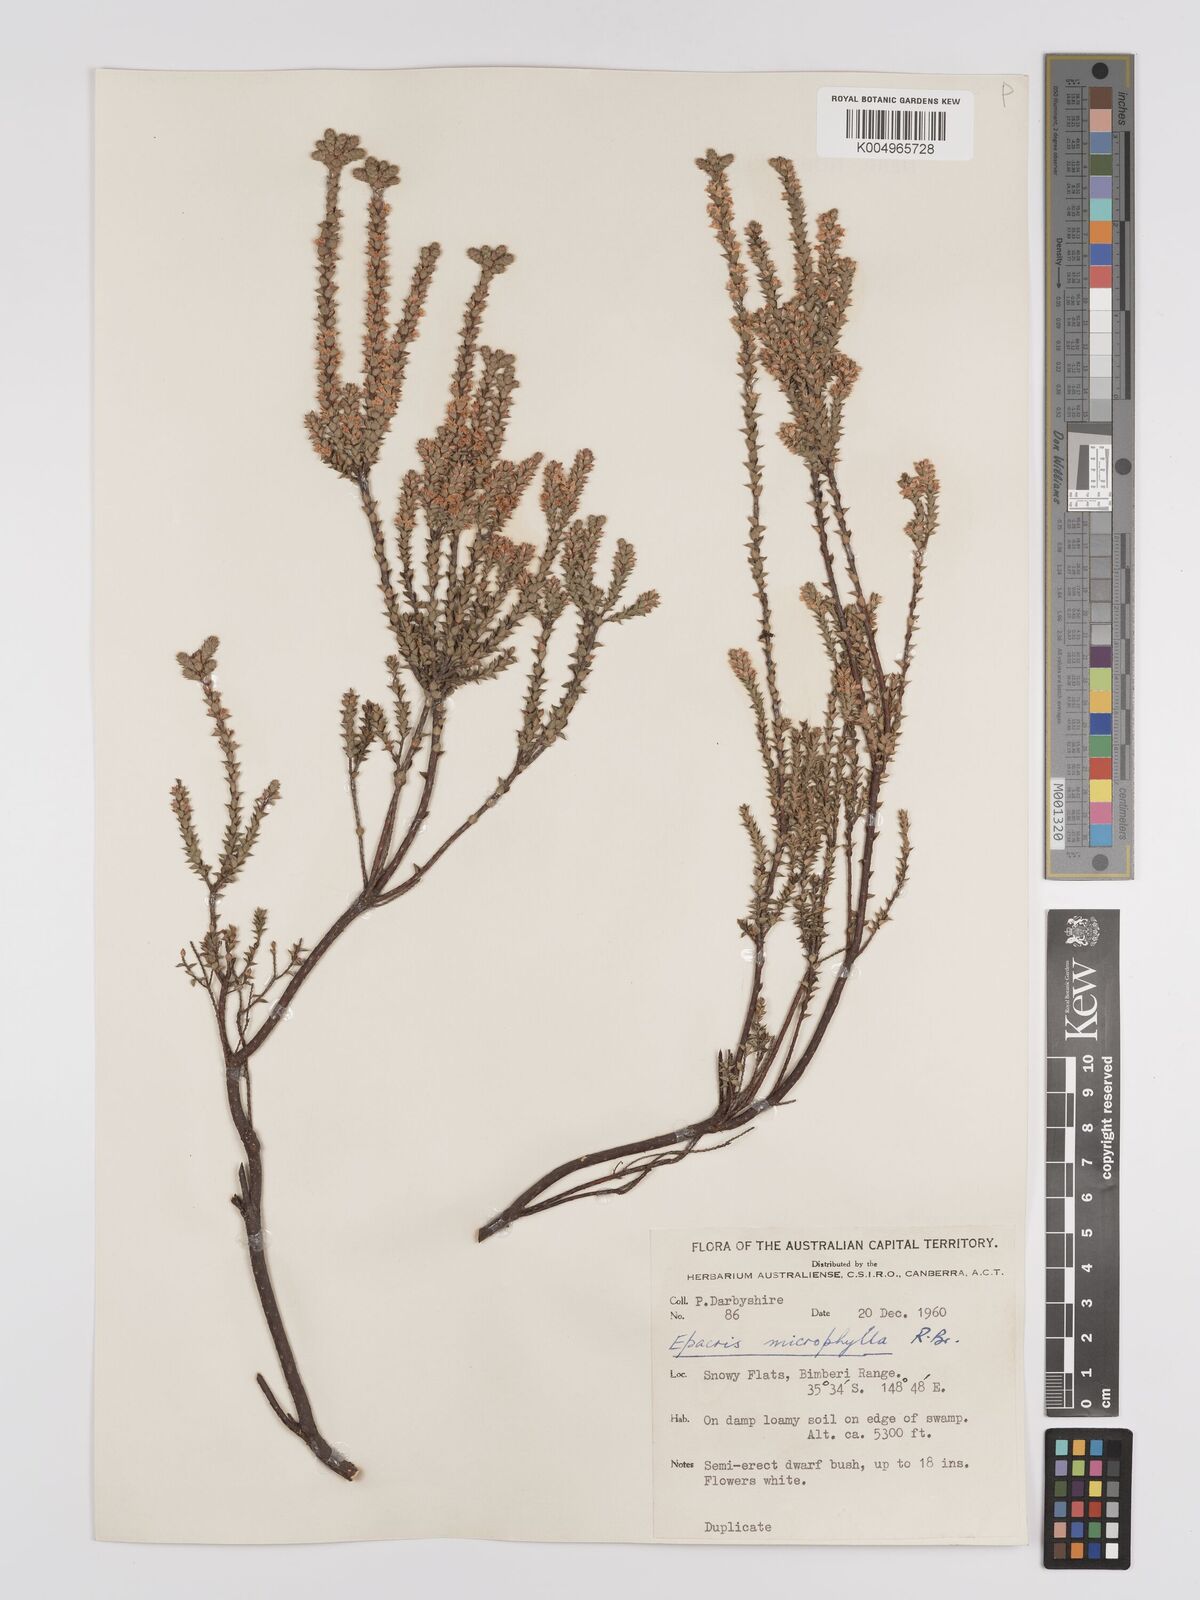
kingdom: Plantae
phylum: Tracheophyta
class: Magnoliopsida
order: Ericales
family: Ericaceae
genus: Epacris
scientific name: Epacris
